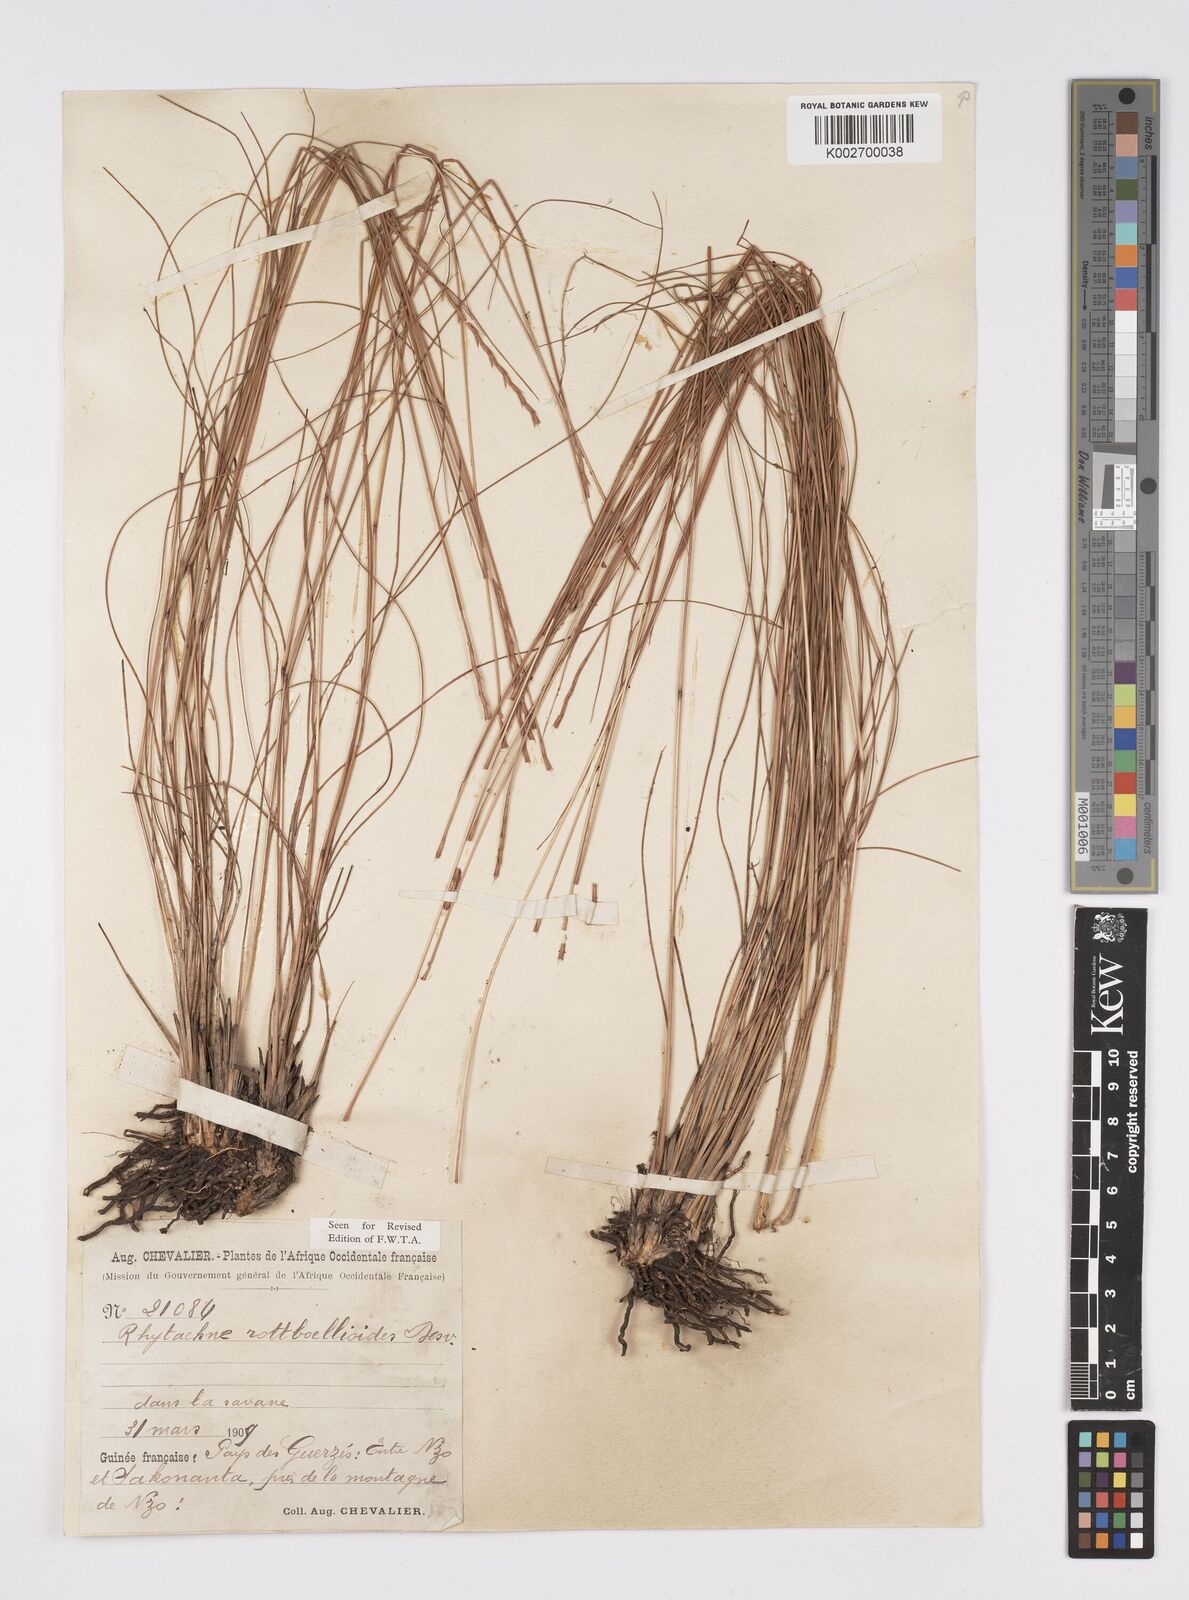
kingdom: Plantae
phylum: Tracheophyta
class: Liliopsida
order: Poales
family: Poaceae
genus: Rhytachne
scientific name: Rhytachne rottboellioides
